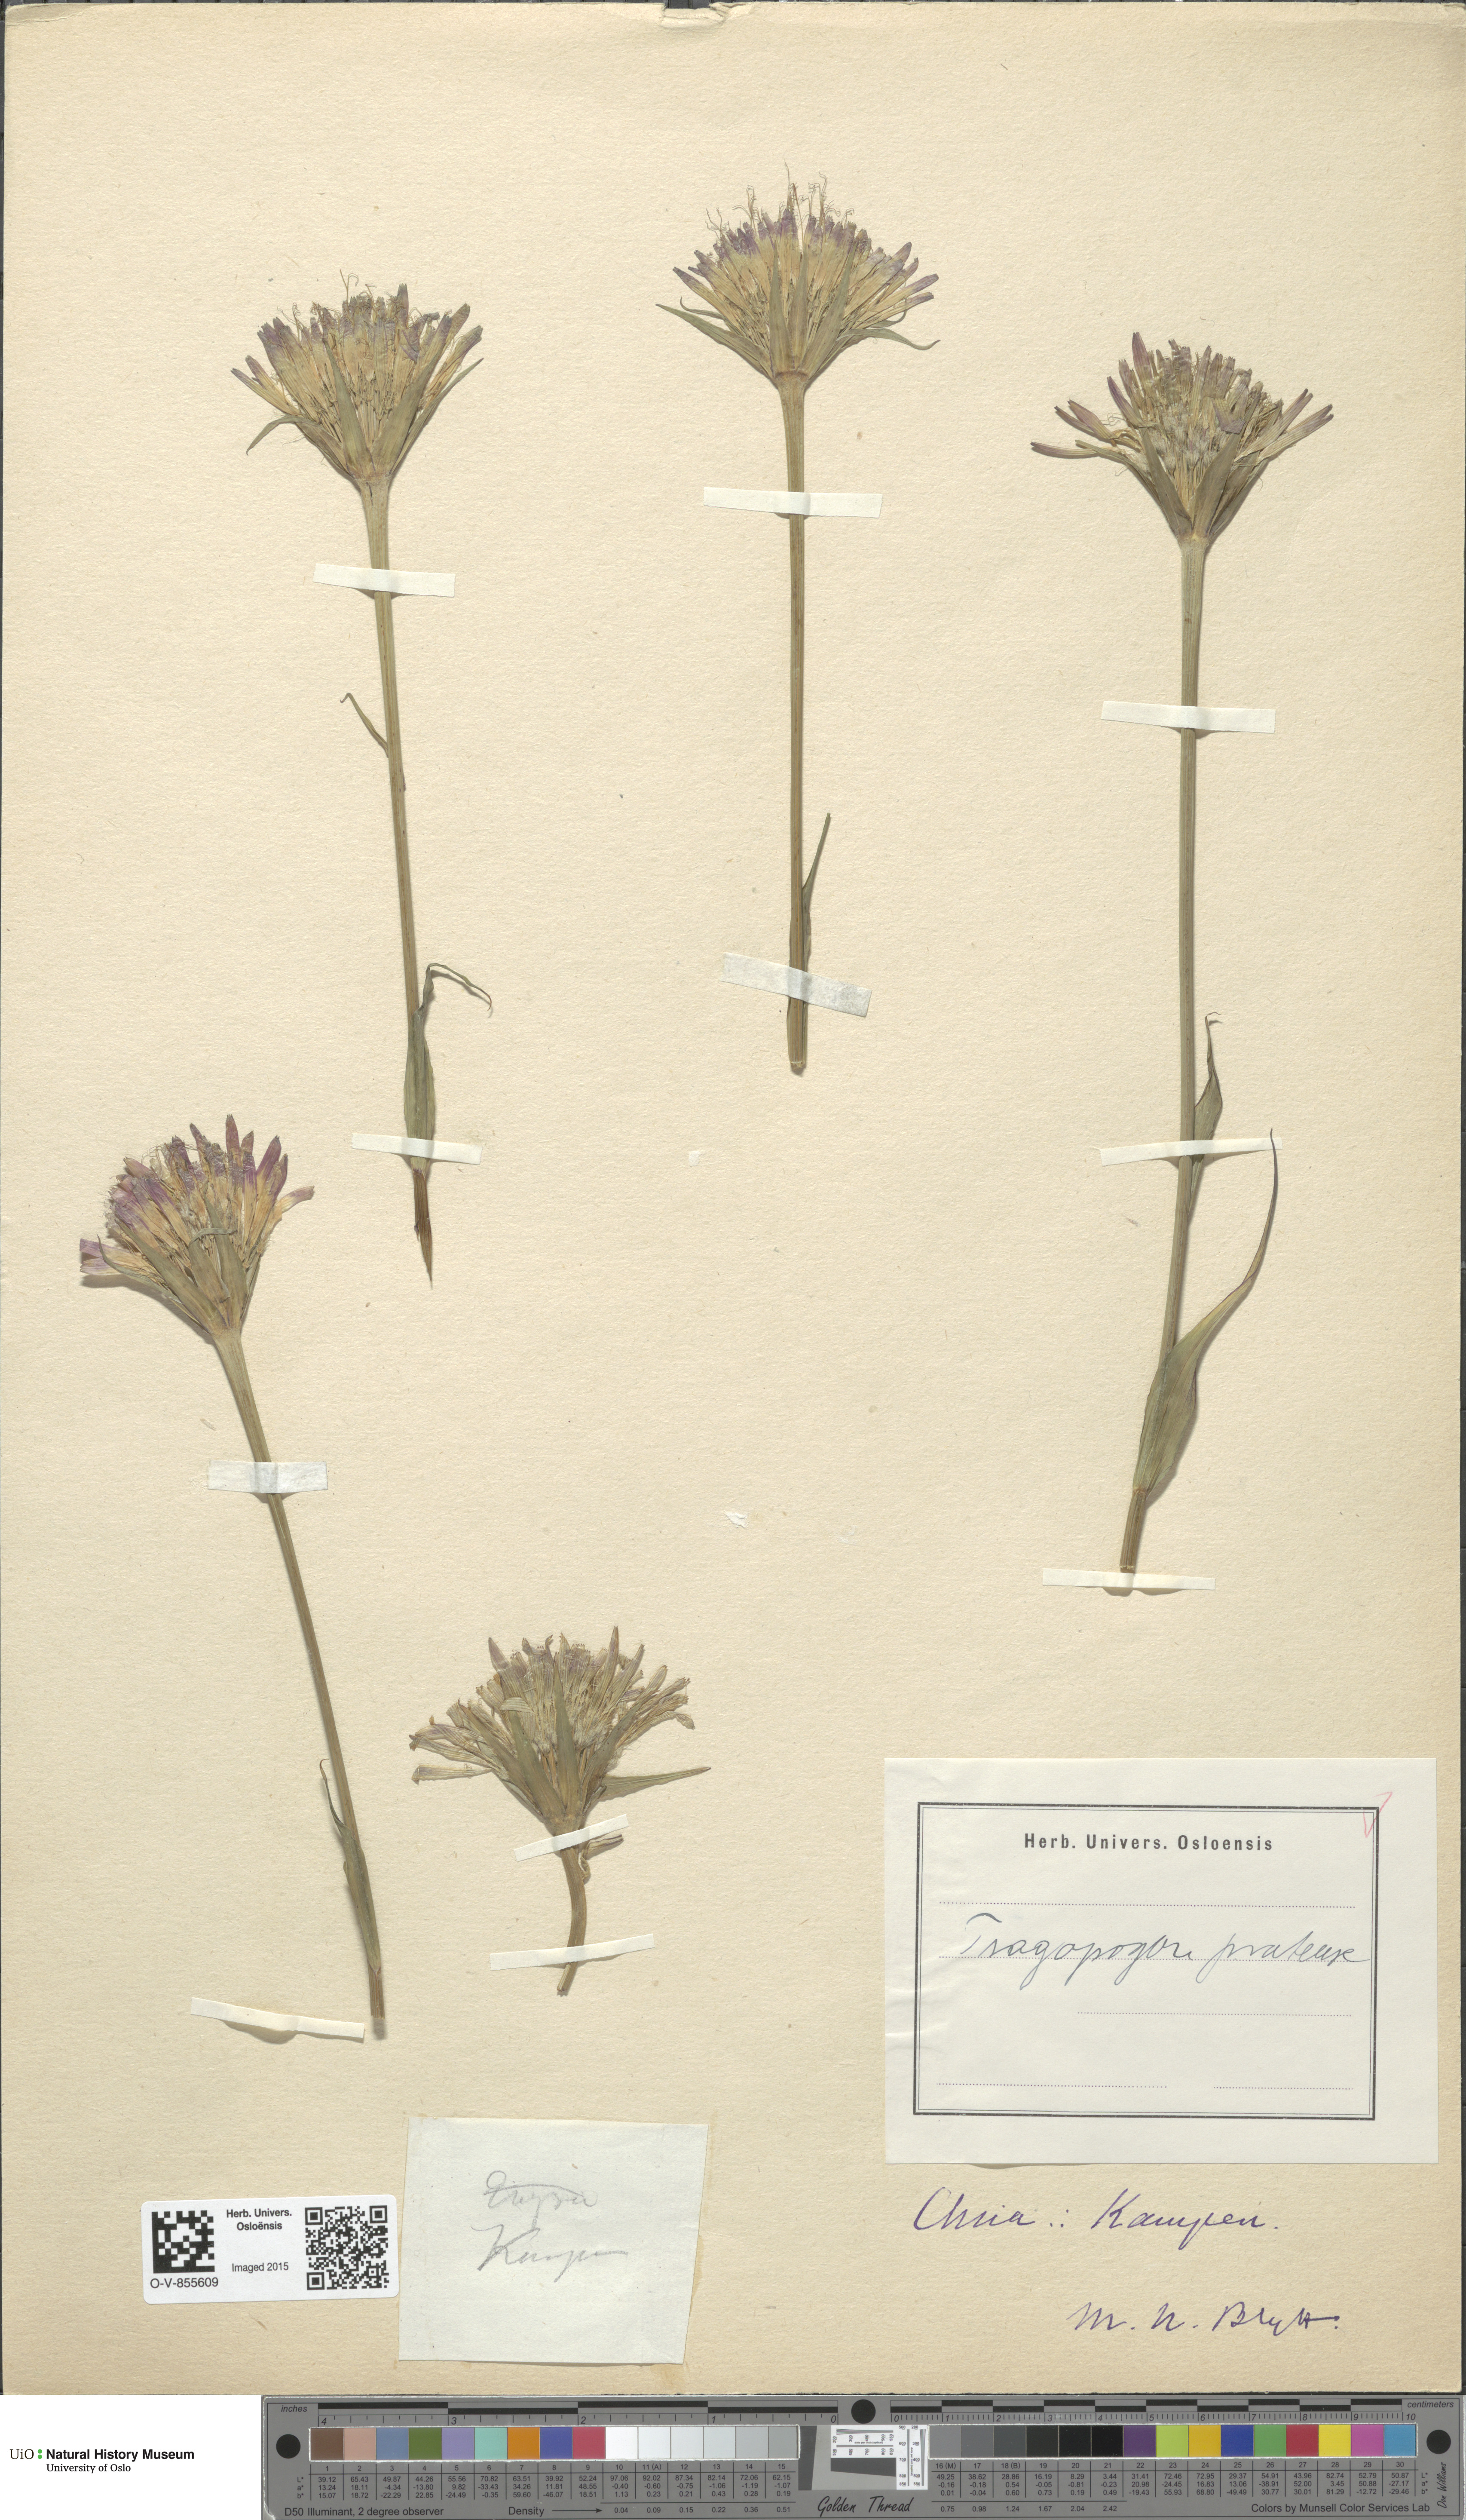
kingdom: Plantae
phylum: Tracheophyta
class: Magnoliopsida
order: Asterales
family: Asteraceae
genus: Tragopogon
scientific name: Tragopogon pratensis
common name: Goat's-beard
